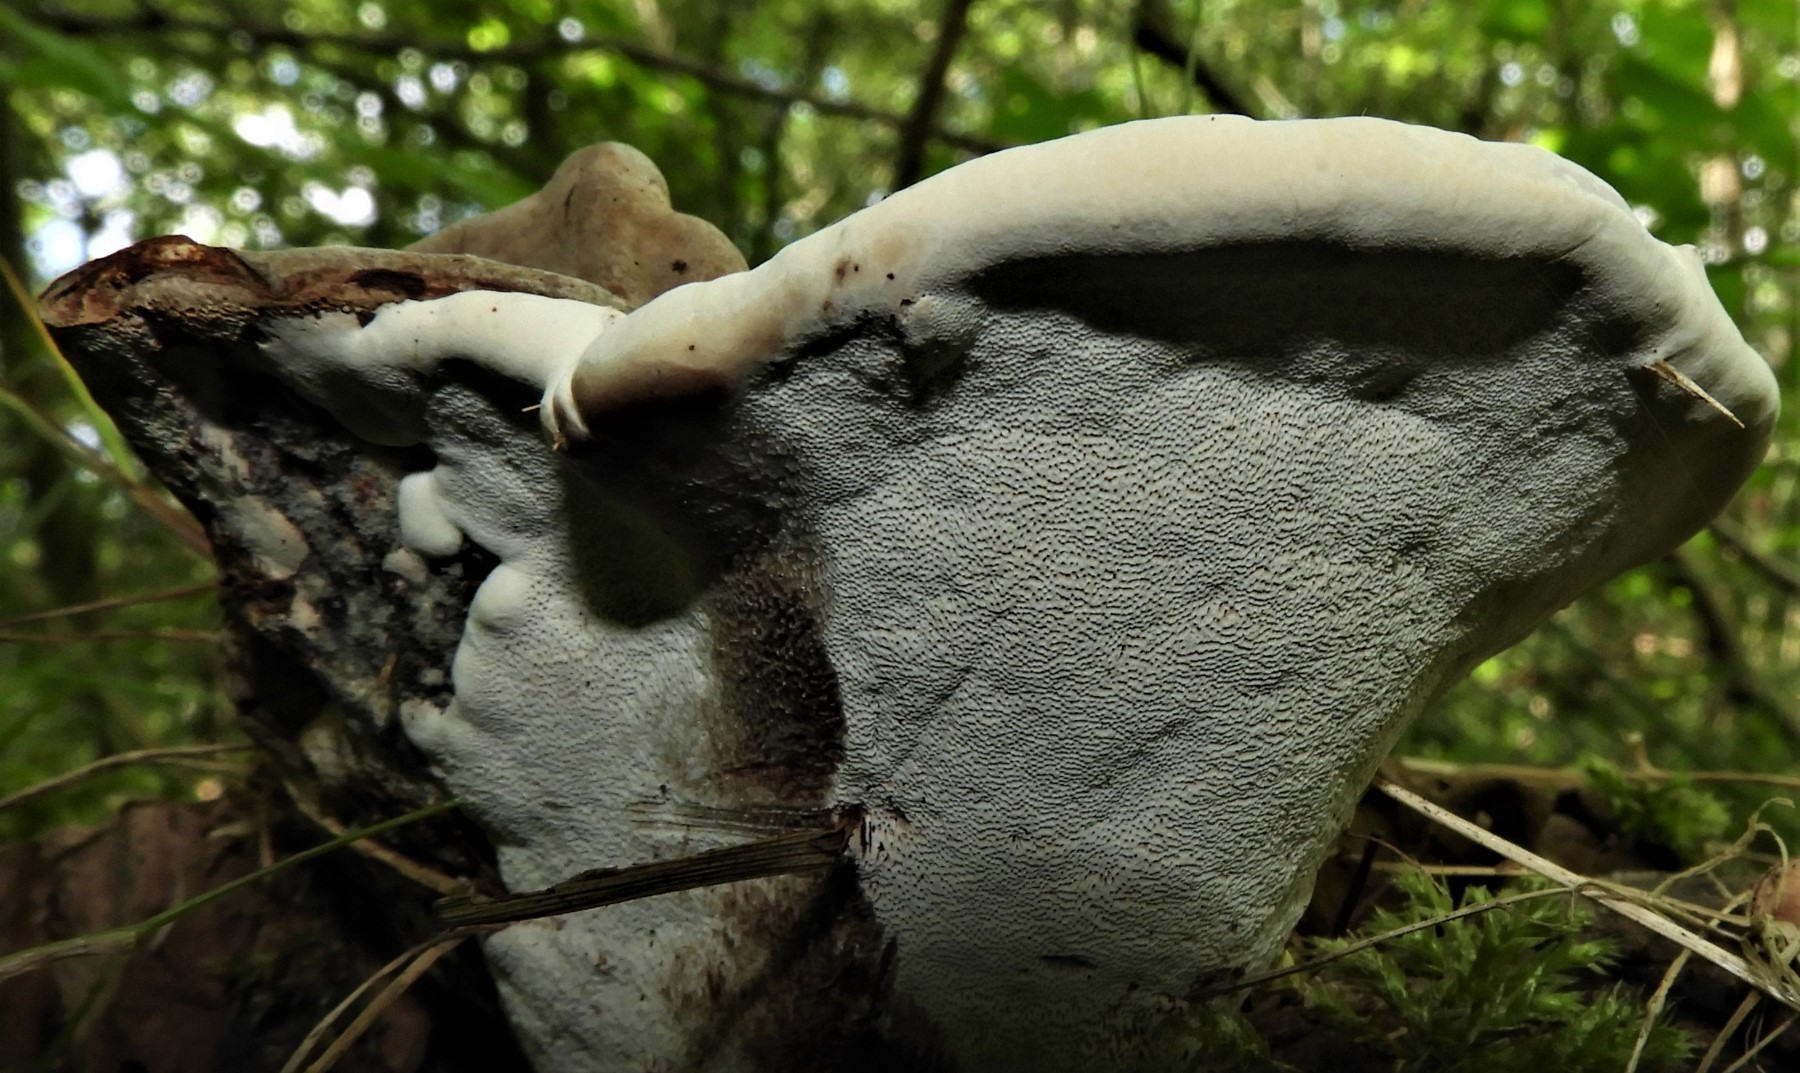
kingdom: Fungi
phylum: Basidiomycota
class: Agaricomycetes
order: Polyporales
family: Polyporaceae
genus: Ganoderma
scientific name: Ganoderma applanatum
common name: flad lakporesvamp
